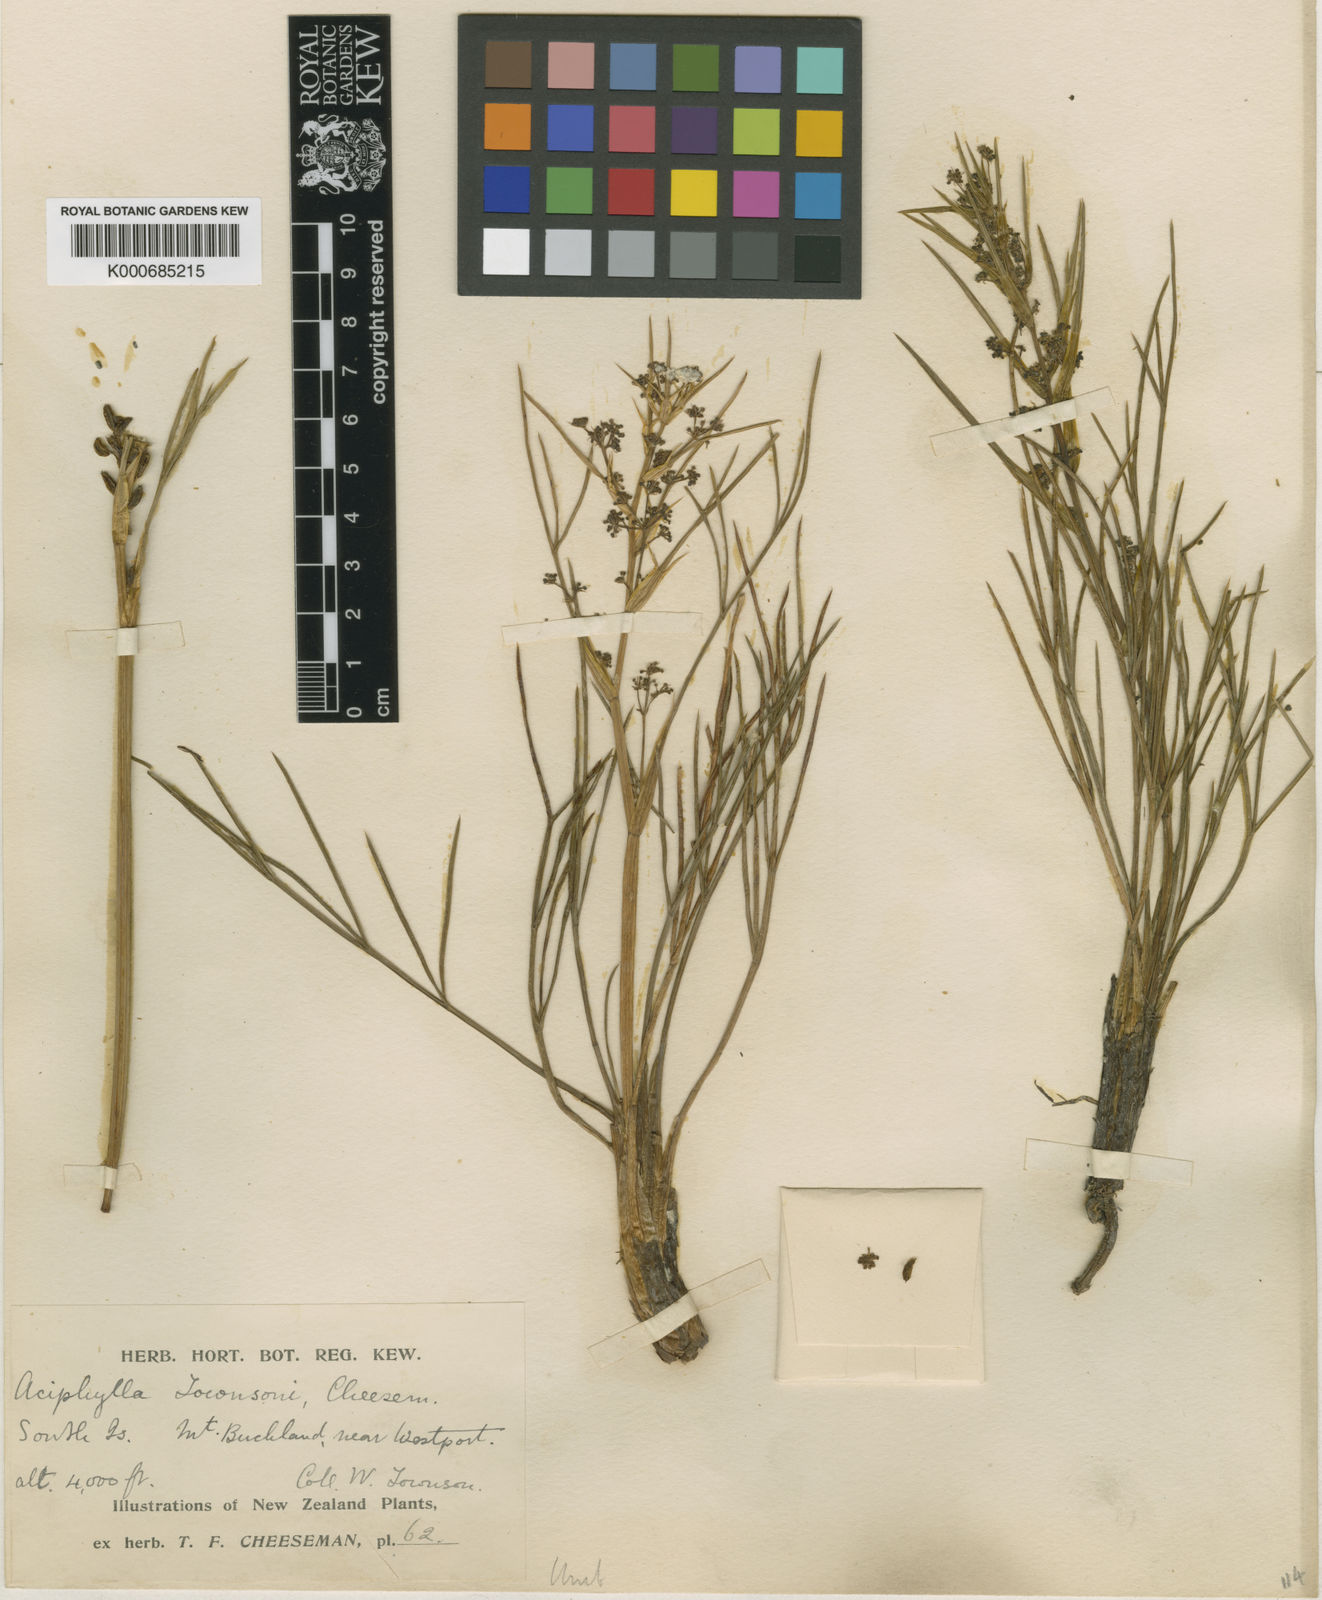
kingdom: Plantae
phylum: Tracheophyta
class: Magnoliopsida
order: Apiales
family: Apiaceae
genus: Aciphylla
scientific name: Aciphylla hookeri
